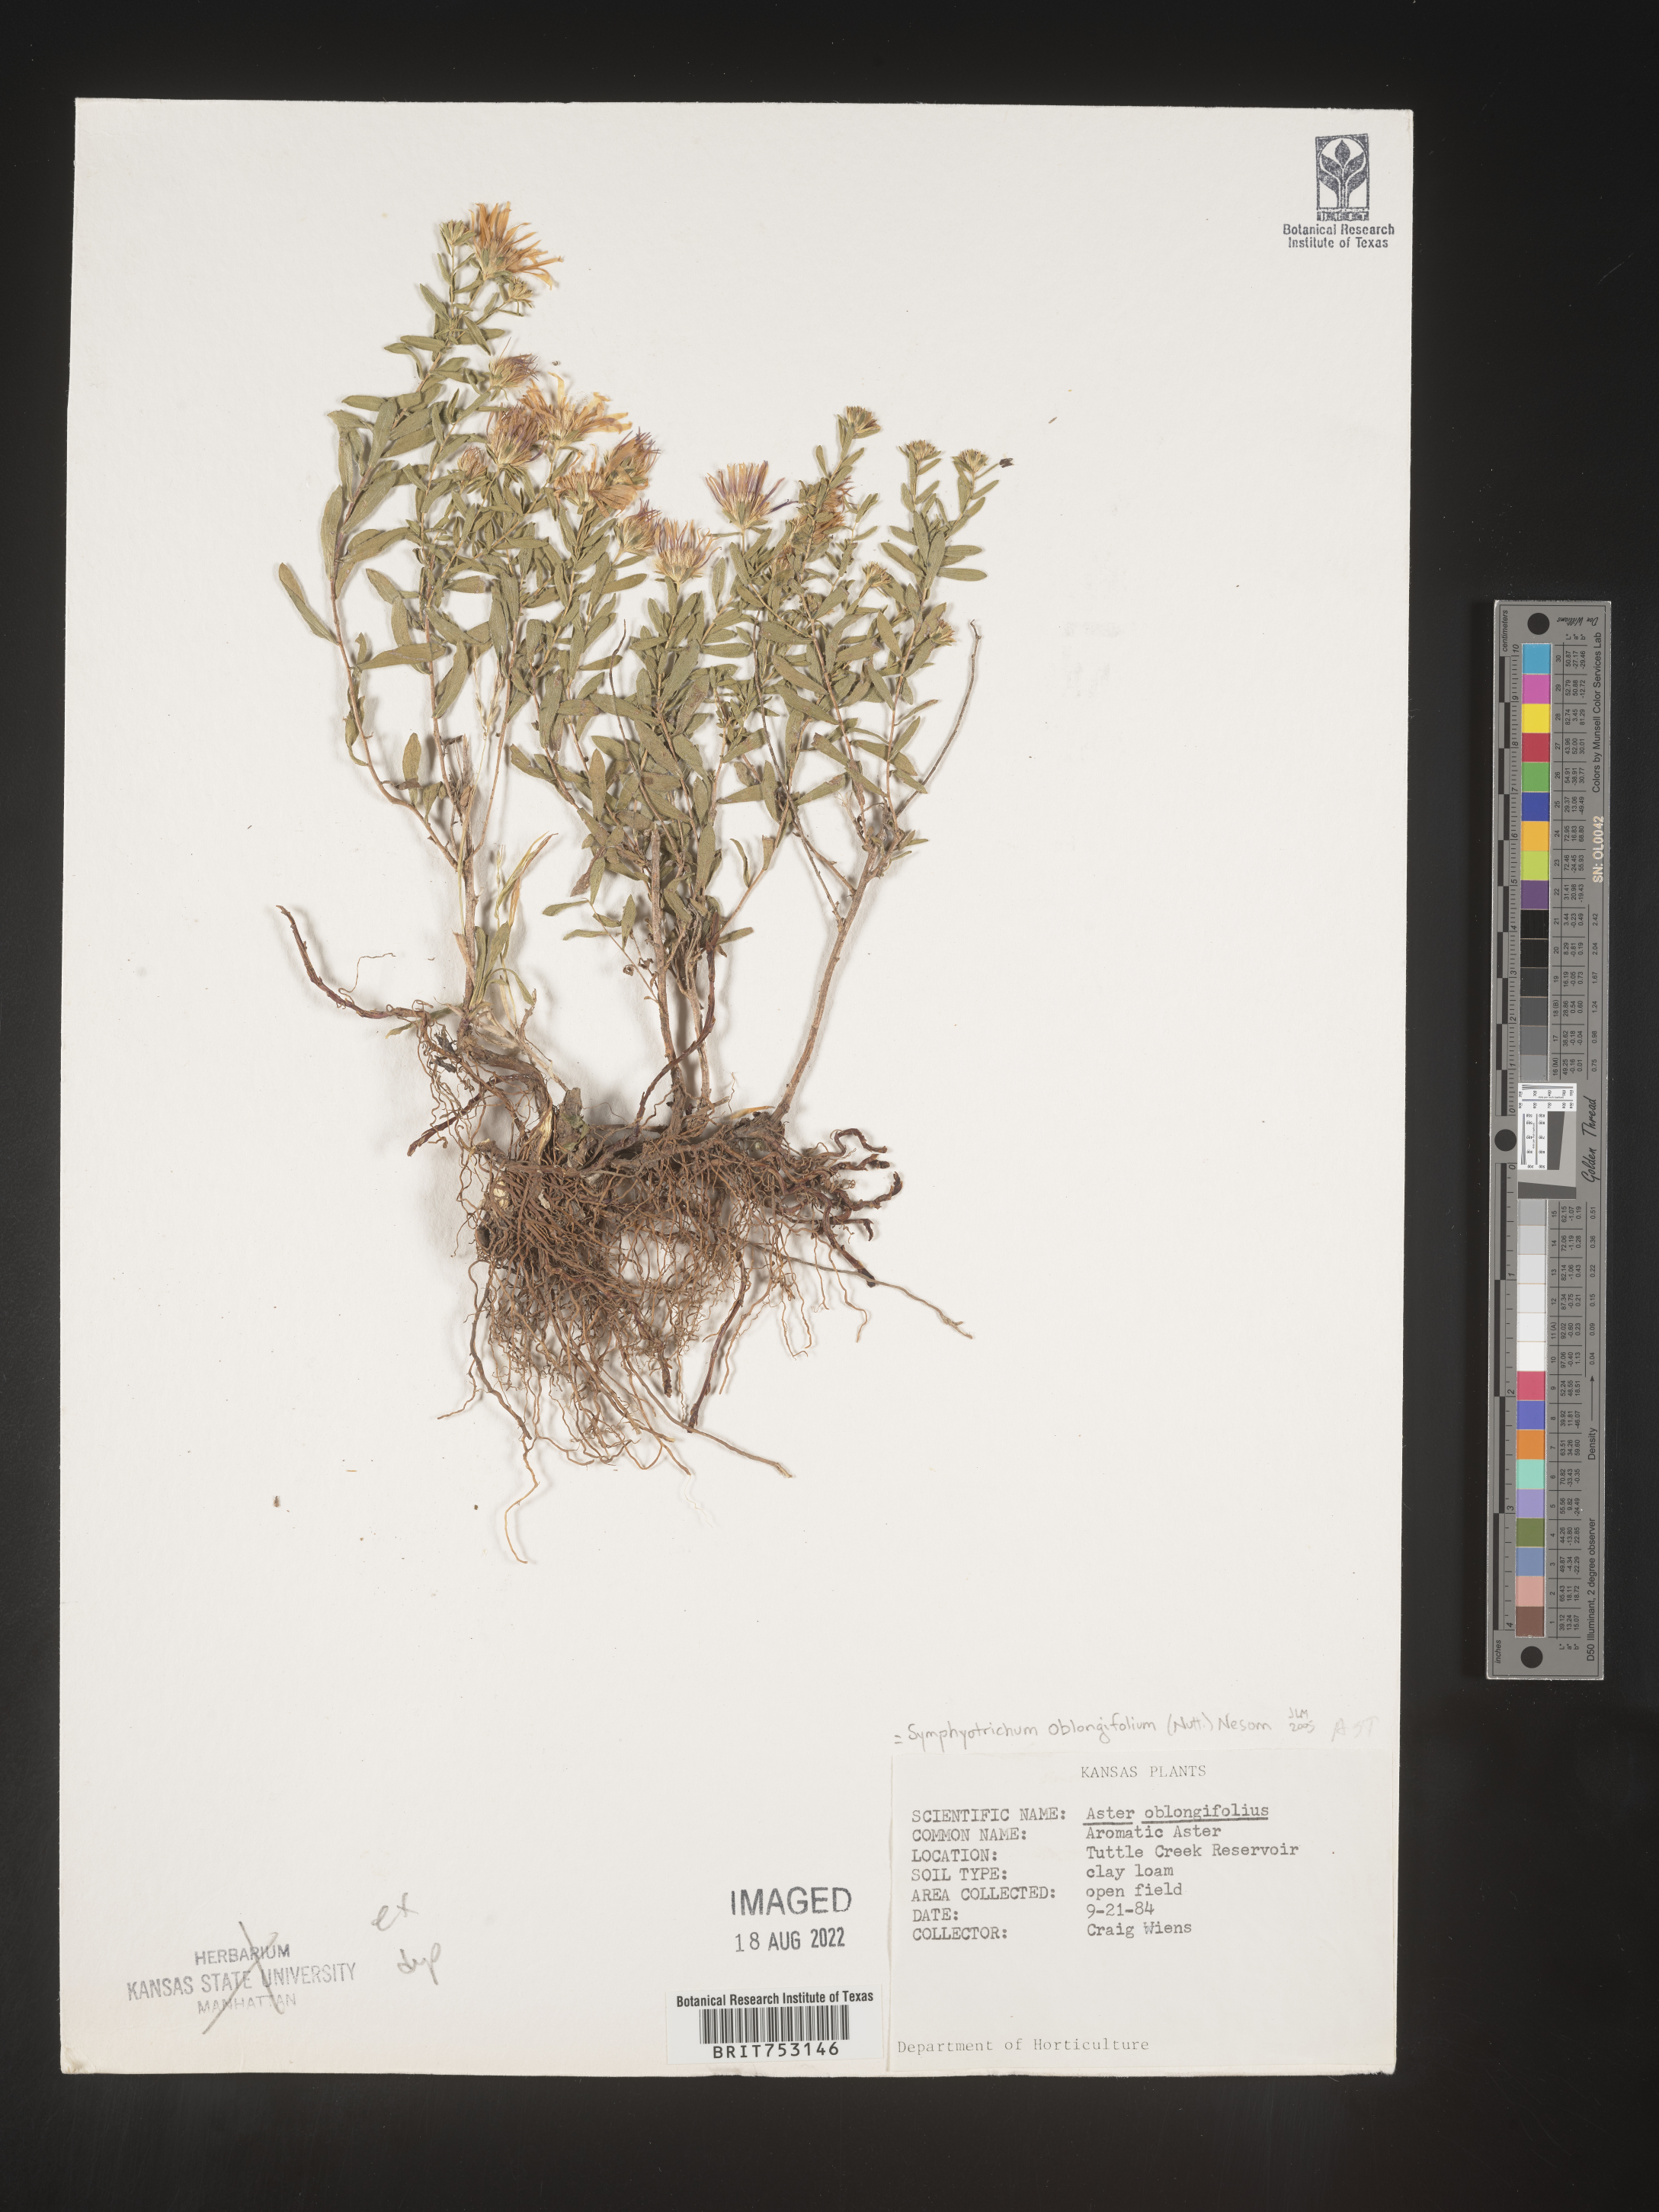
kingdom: Plantae
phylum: Tracheophyta
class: Magnoliopsida
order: Asterales
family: Asteraceae
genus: Symphyotrichum
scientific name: Symphyotrichum oblongifolium
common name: Aromatic aster
